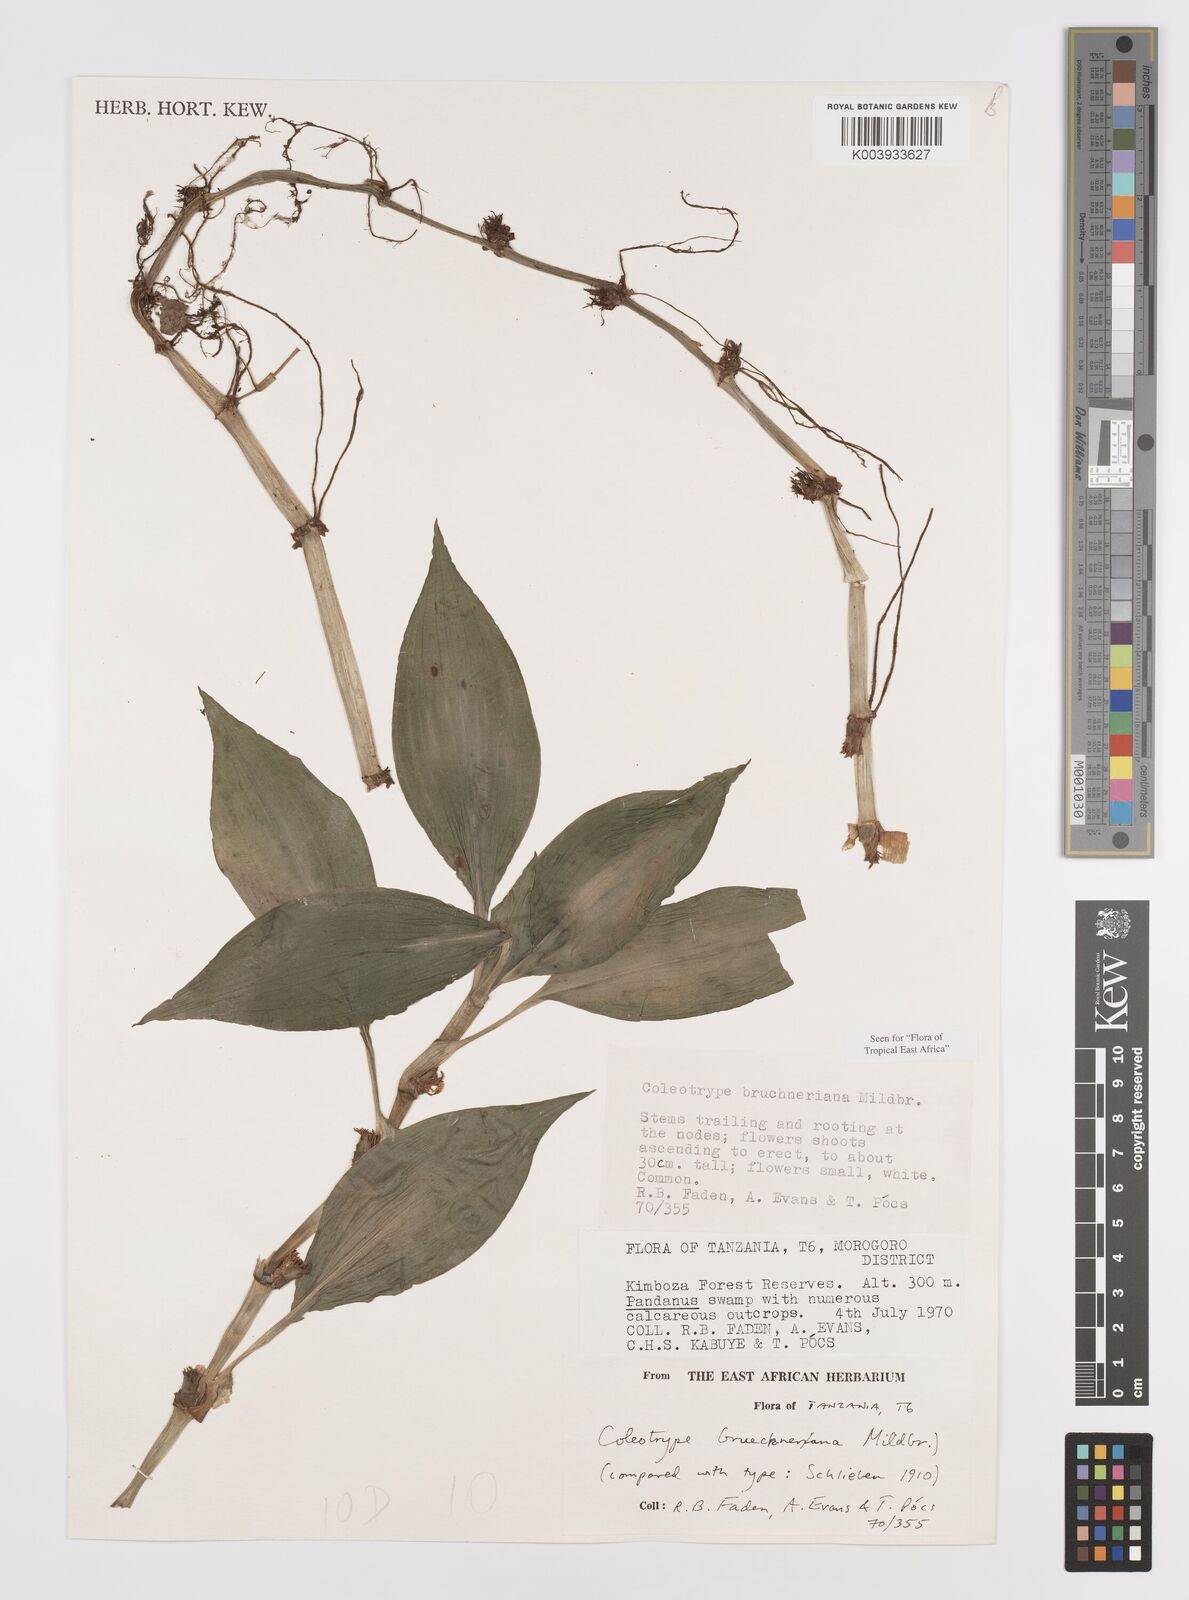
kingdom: Plantae
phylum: Tracheophyta
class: Liliopsida
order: Commelinales
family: Commelinaceae
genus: Coleotrype
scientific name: Coleotrype brueckneriana
